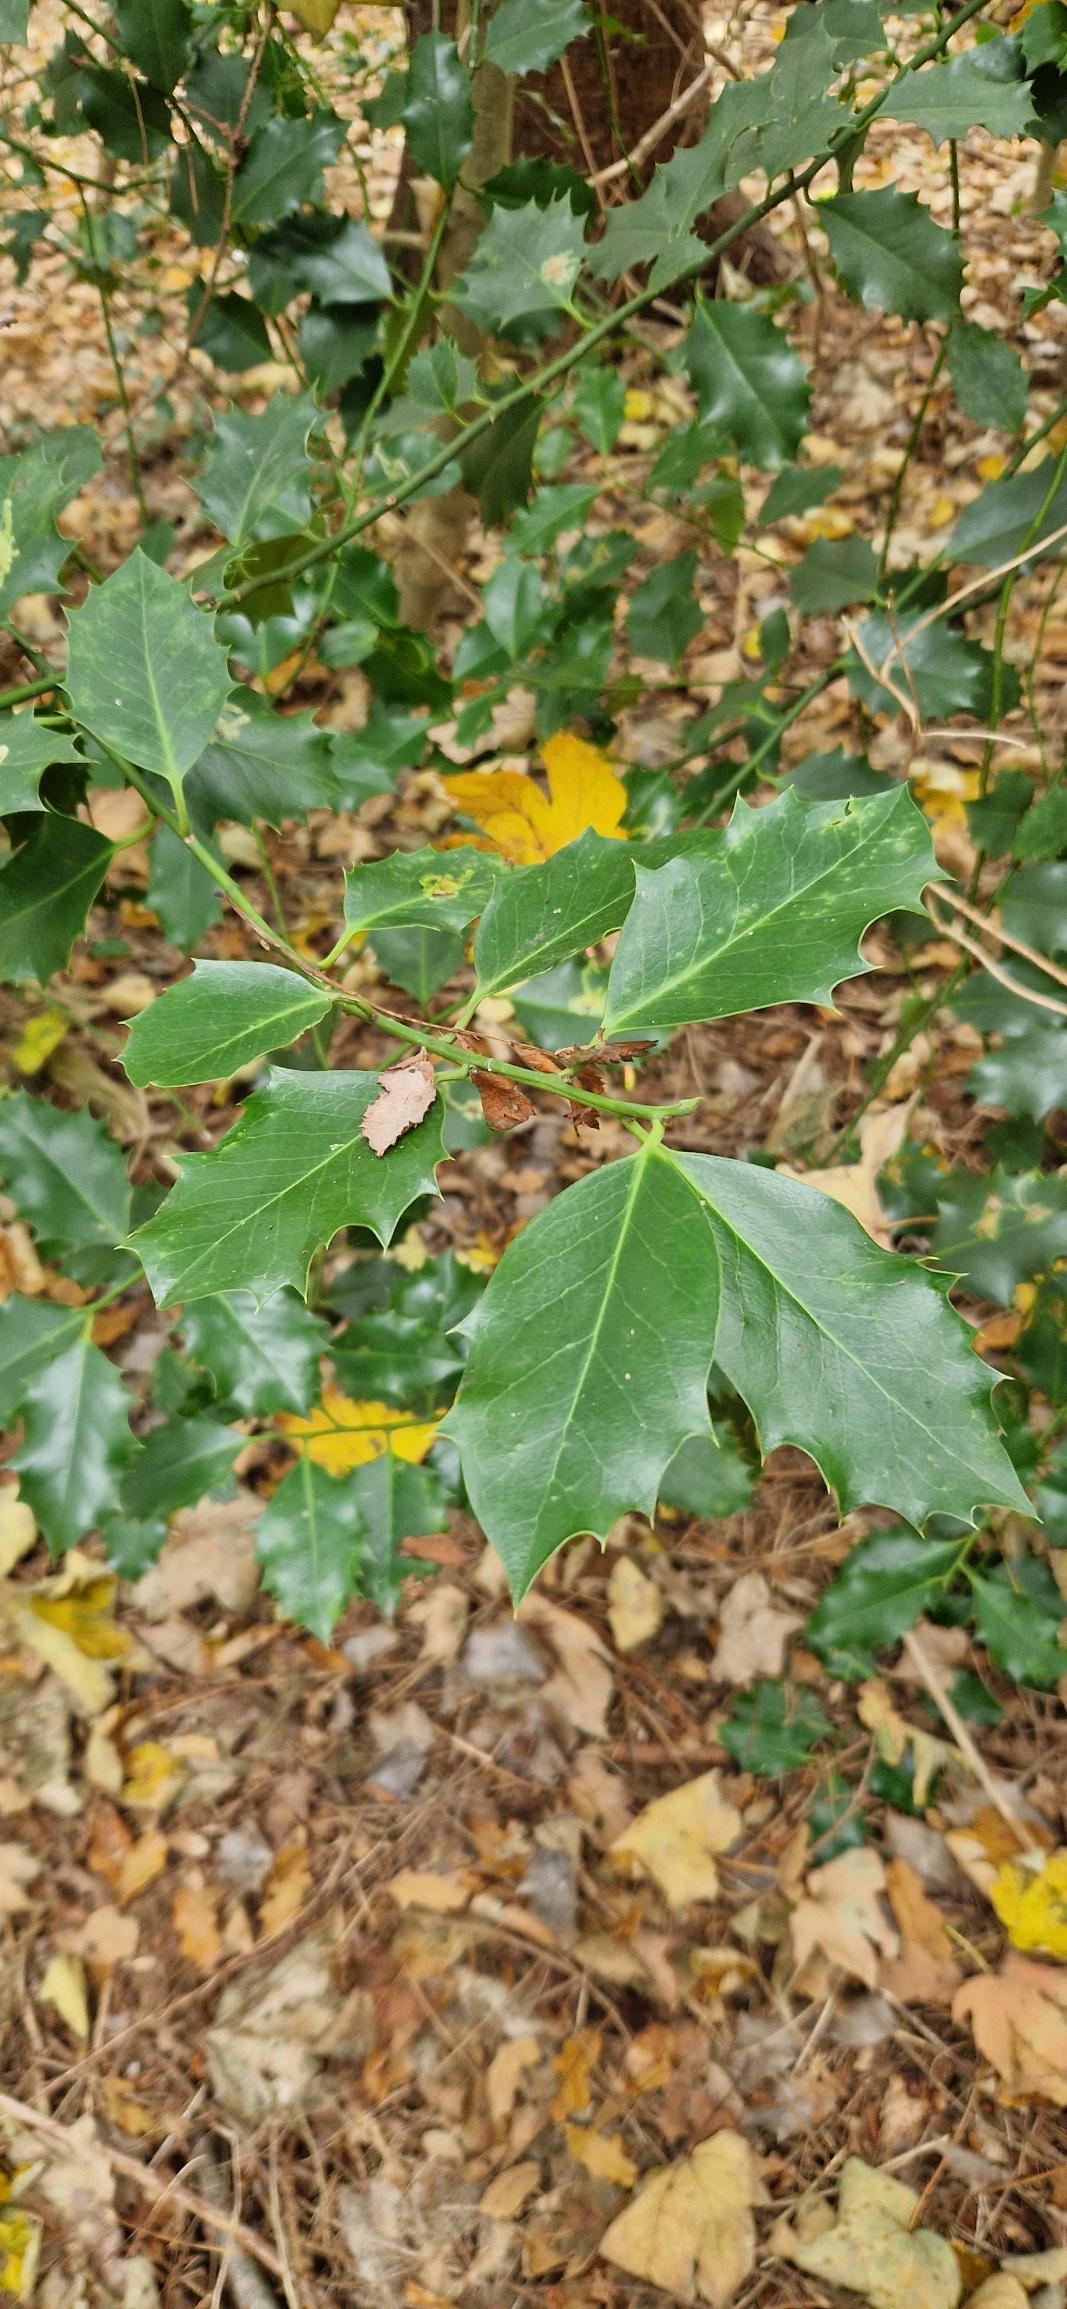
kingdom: Plantae
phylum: Tracheophyta
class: Magnoliopsida
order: Aquifoliales
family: Aquifoliaceae
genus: Ilex
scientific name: Ilex aquifolium
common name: Kristtorn
